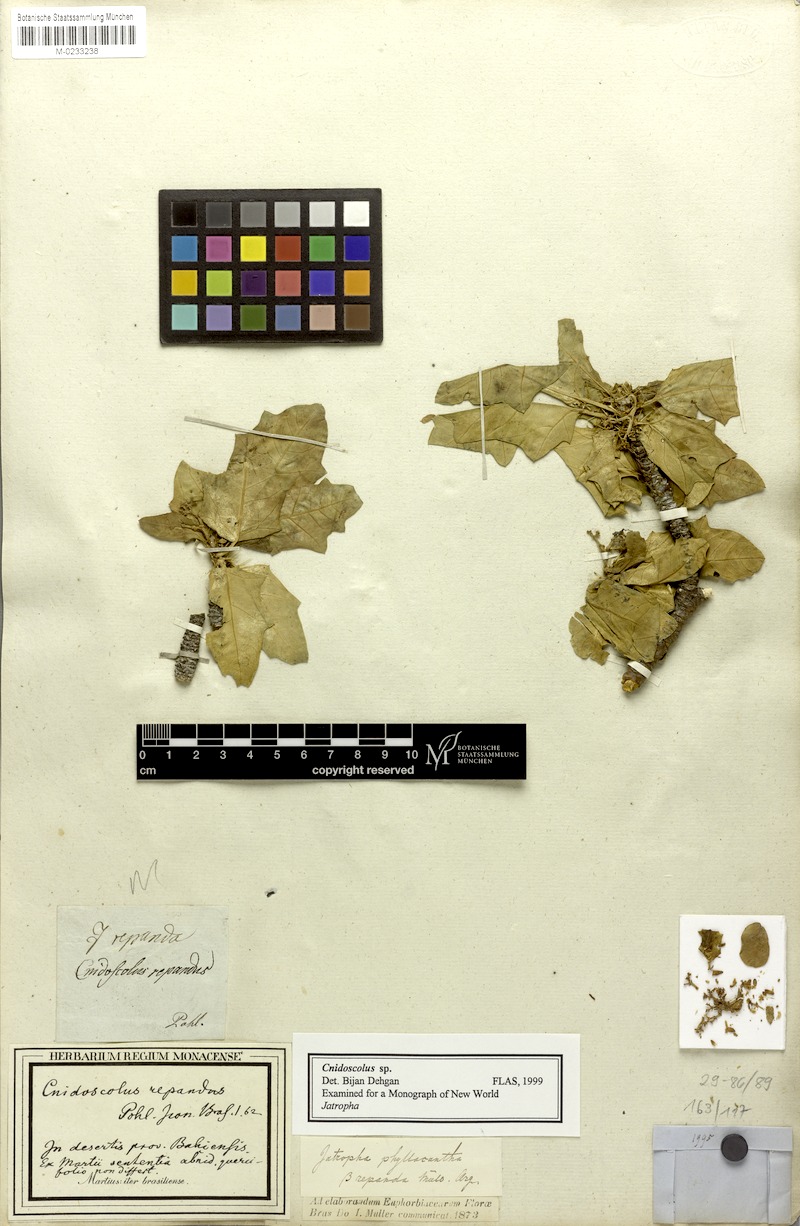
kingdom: Plantae
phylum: Tracheophyta
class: Magnoliopsida
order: Malpighiales
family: Euphorbiaceae
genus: Cnidoscolus
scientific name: Cnidoscolus quercifolius
